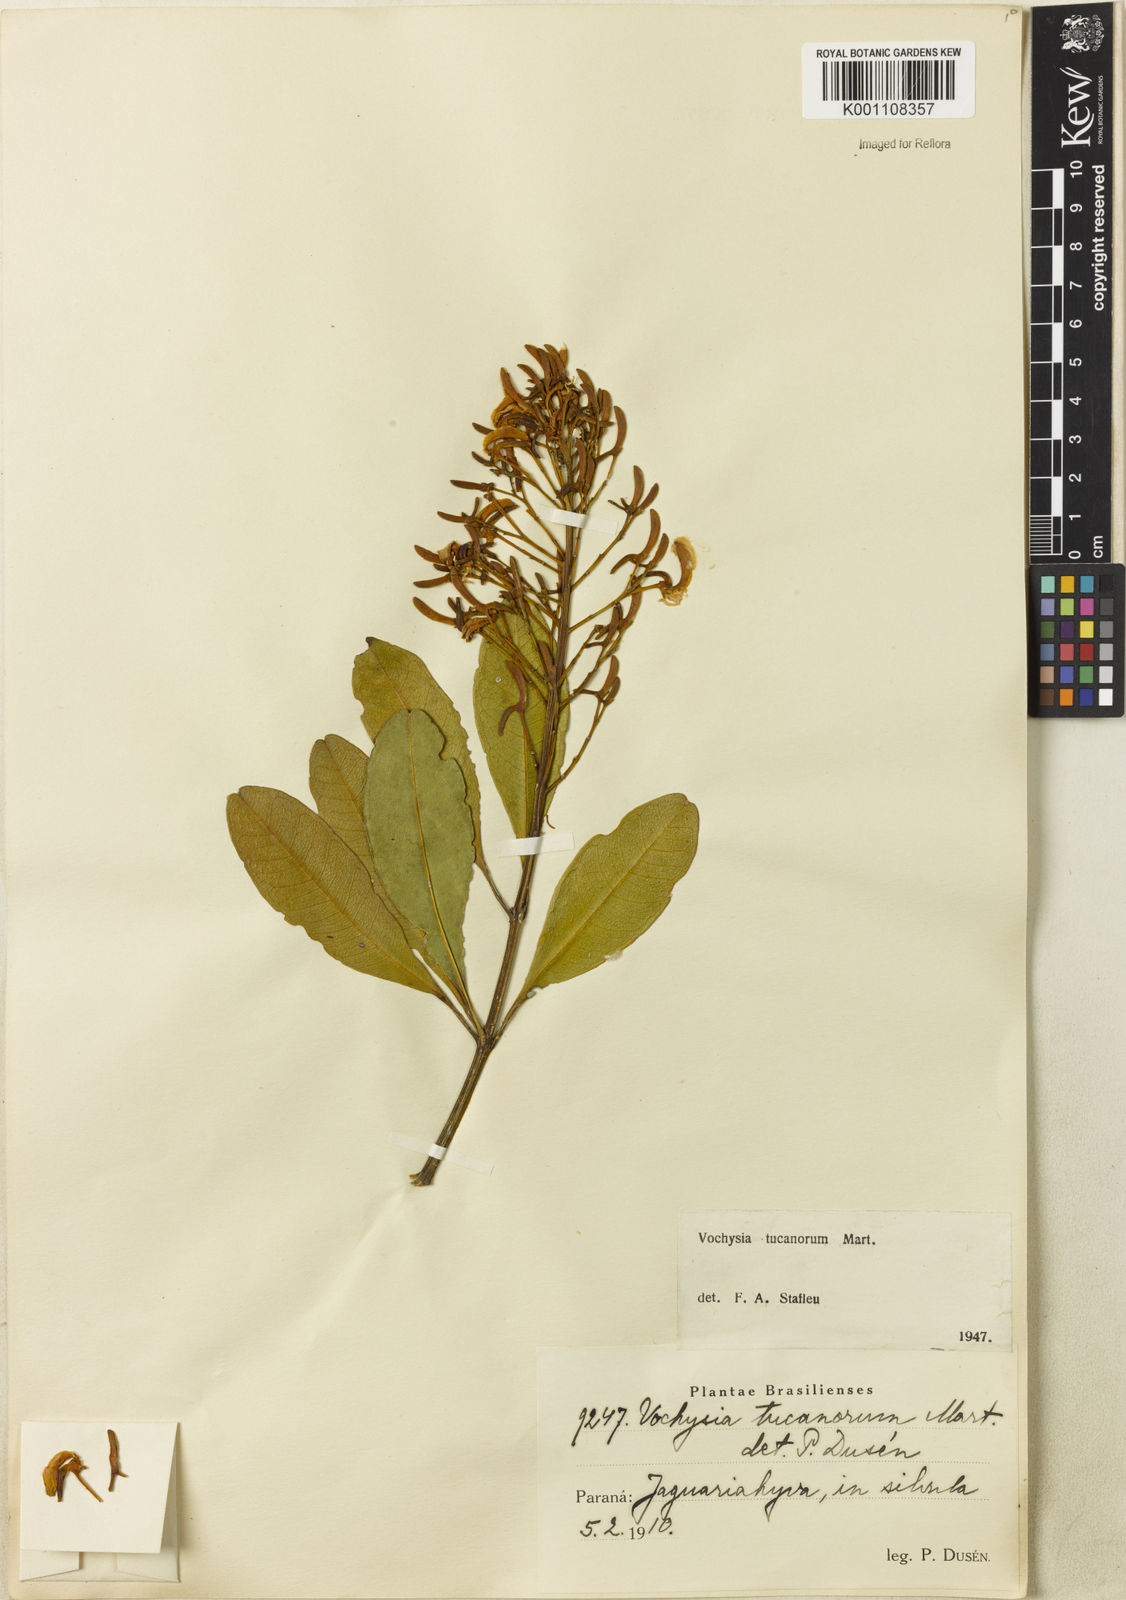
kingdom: Plantae
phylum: Tracheophyta
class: Magnoliopsida
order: Myrtales
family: Vochysiaceae
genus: Vochysia
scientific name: Vochysia tucanorum
